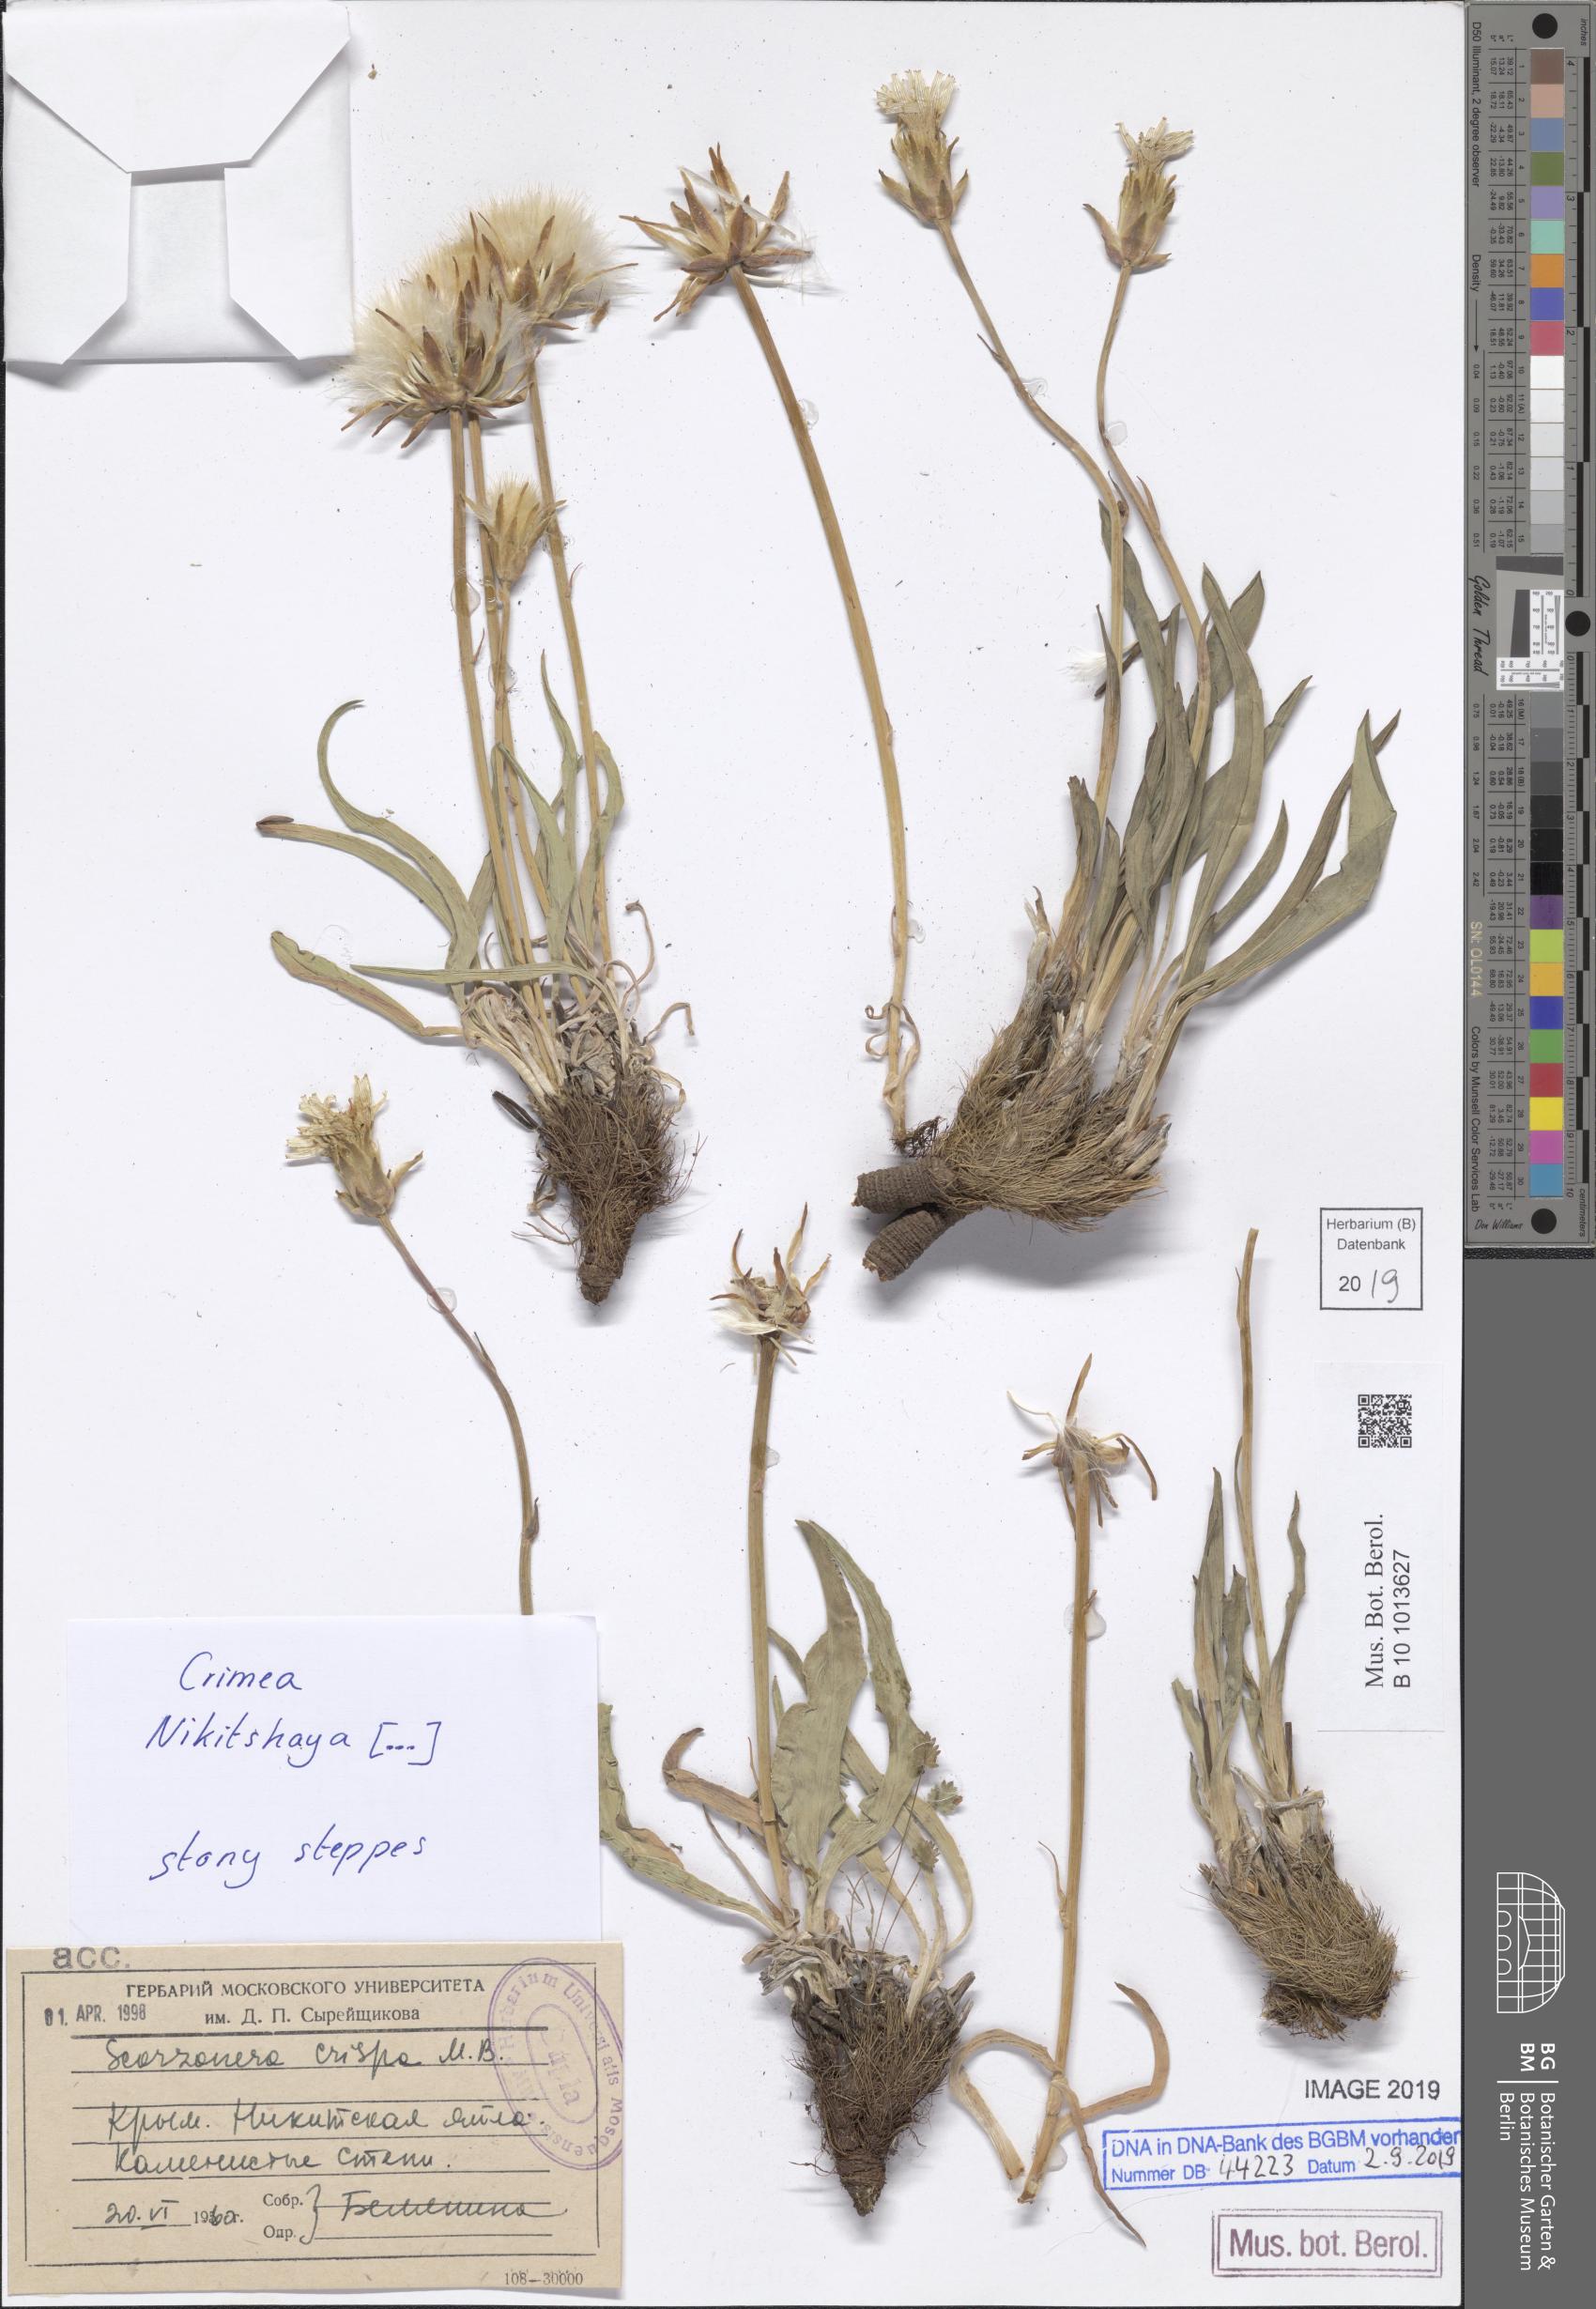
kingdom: Plantae
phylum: Tracheophyta
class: Magnoliopsida
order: Asterales
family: Asteraceae
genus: Takhtajaniantha
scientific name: Takhtajaniantha crispa
